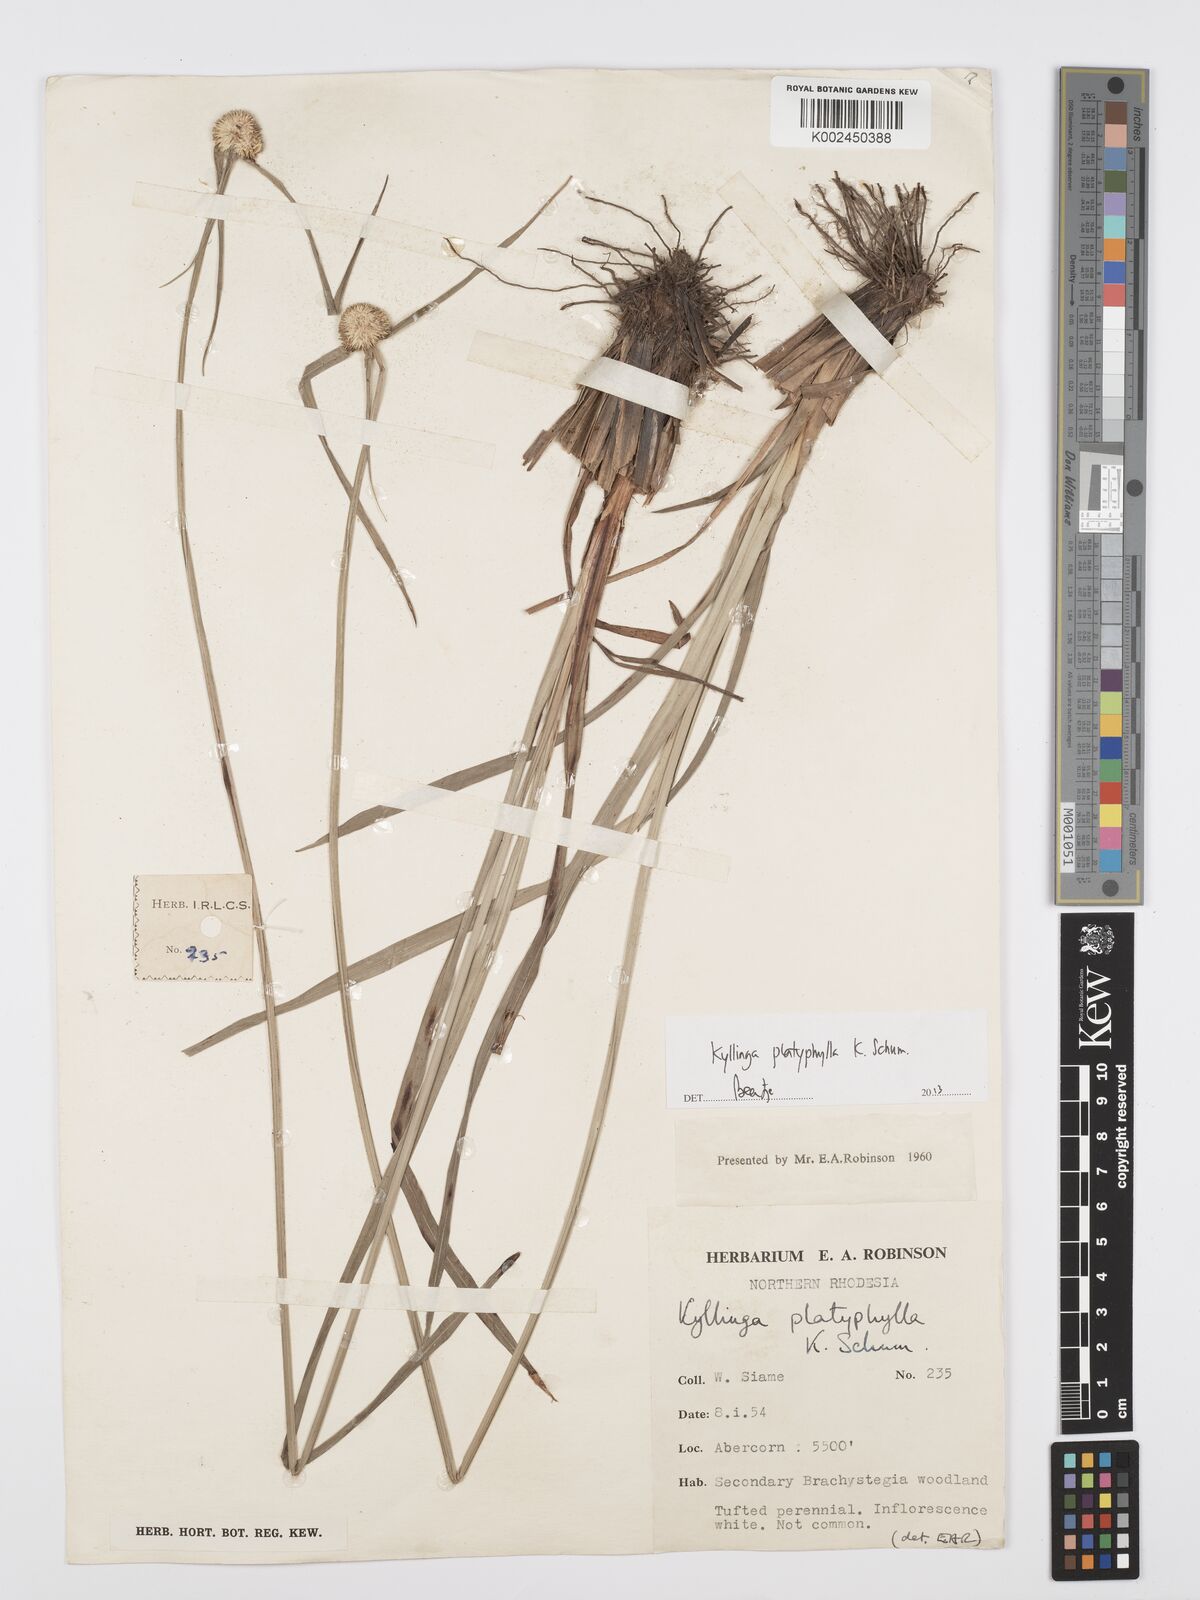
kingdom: Plantae
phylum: Tracheophyta
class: Liliopsida
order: Poales
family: Cyperaceae
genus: Cyperus
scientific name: Cyperus
